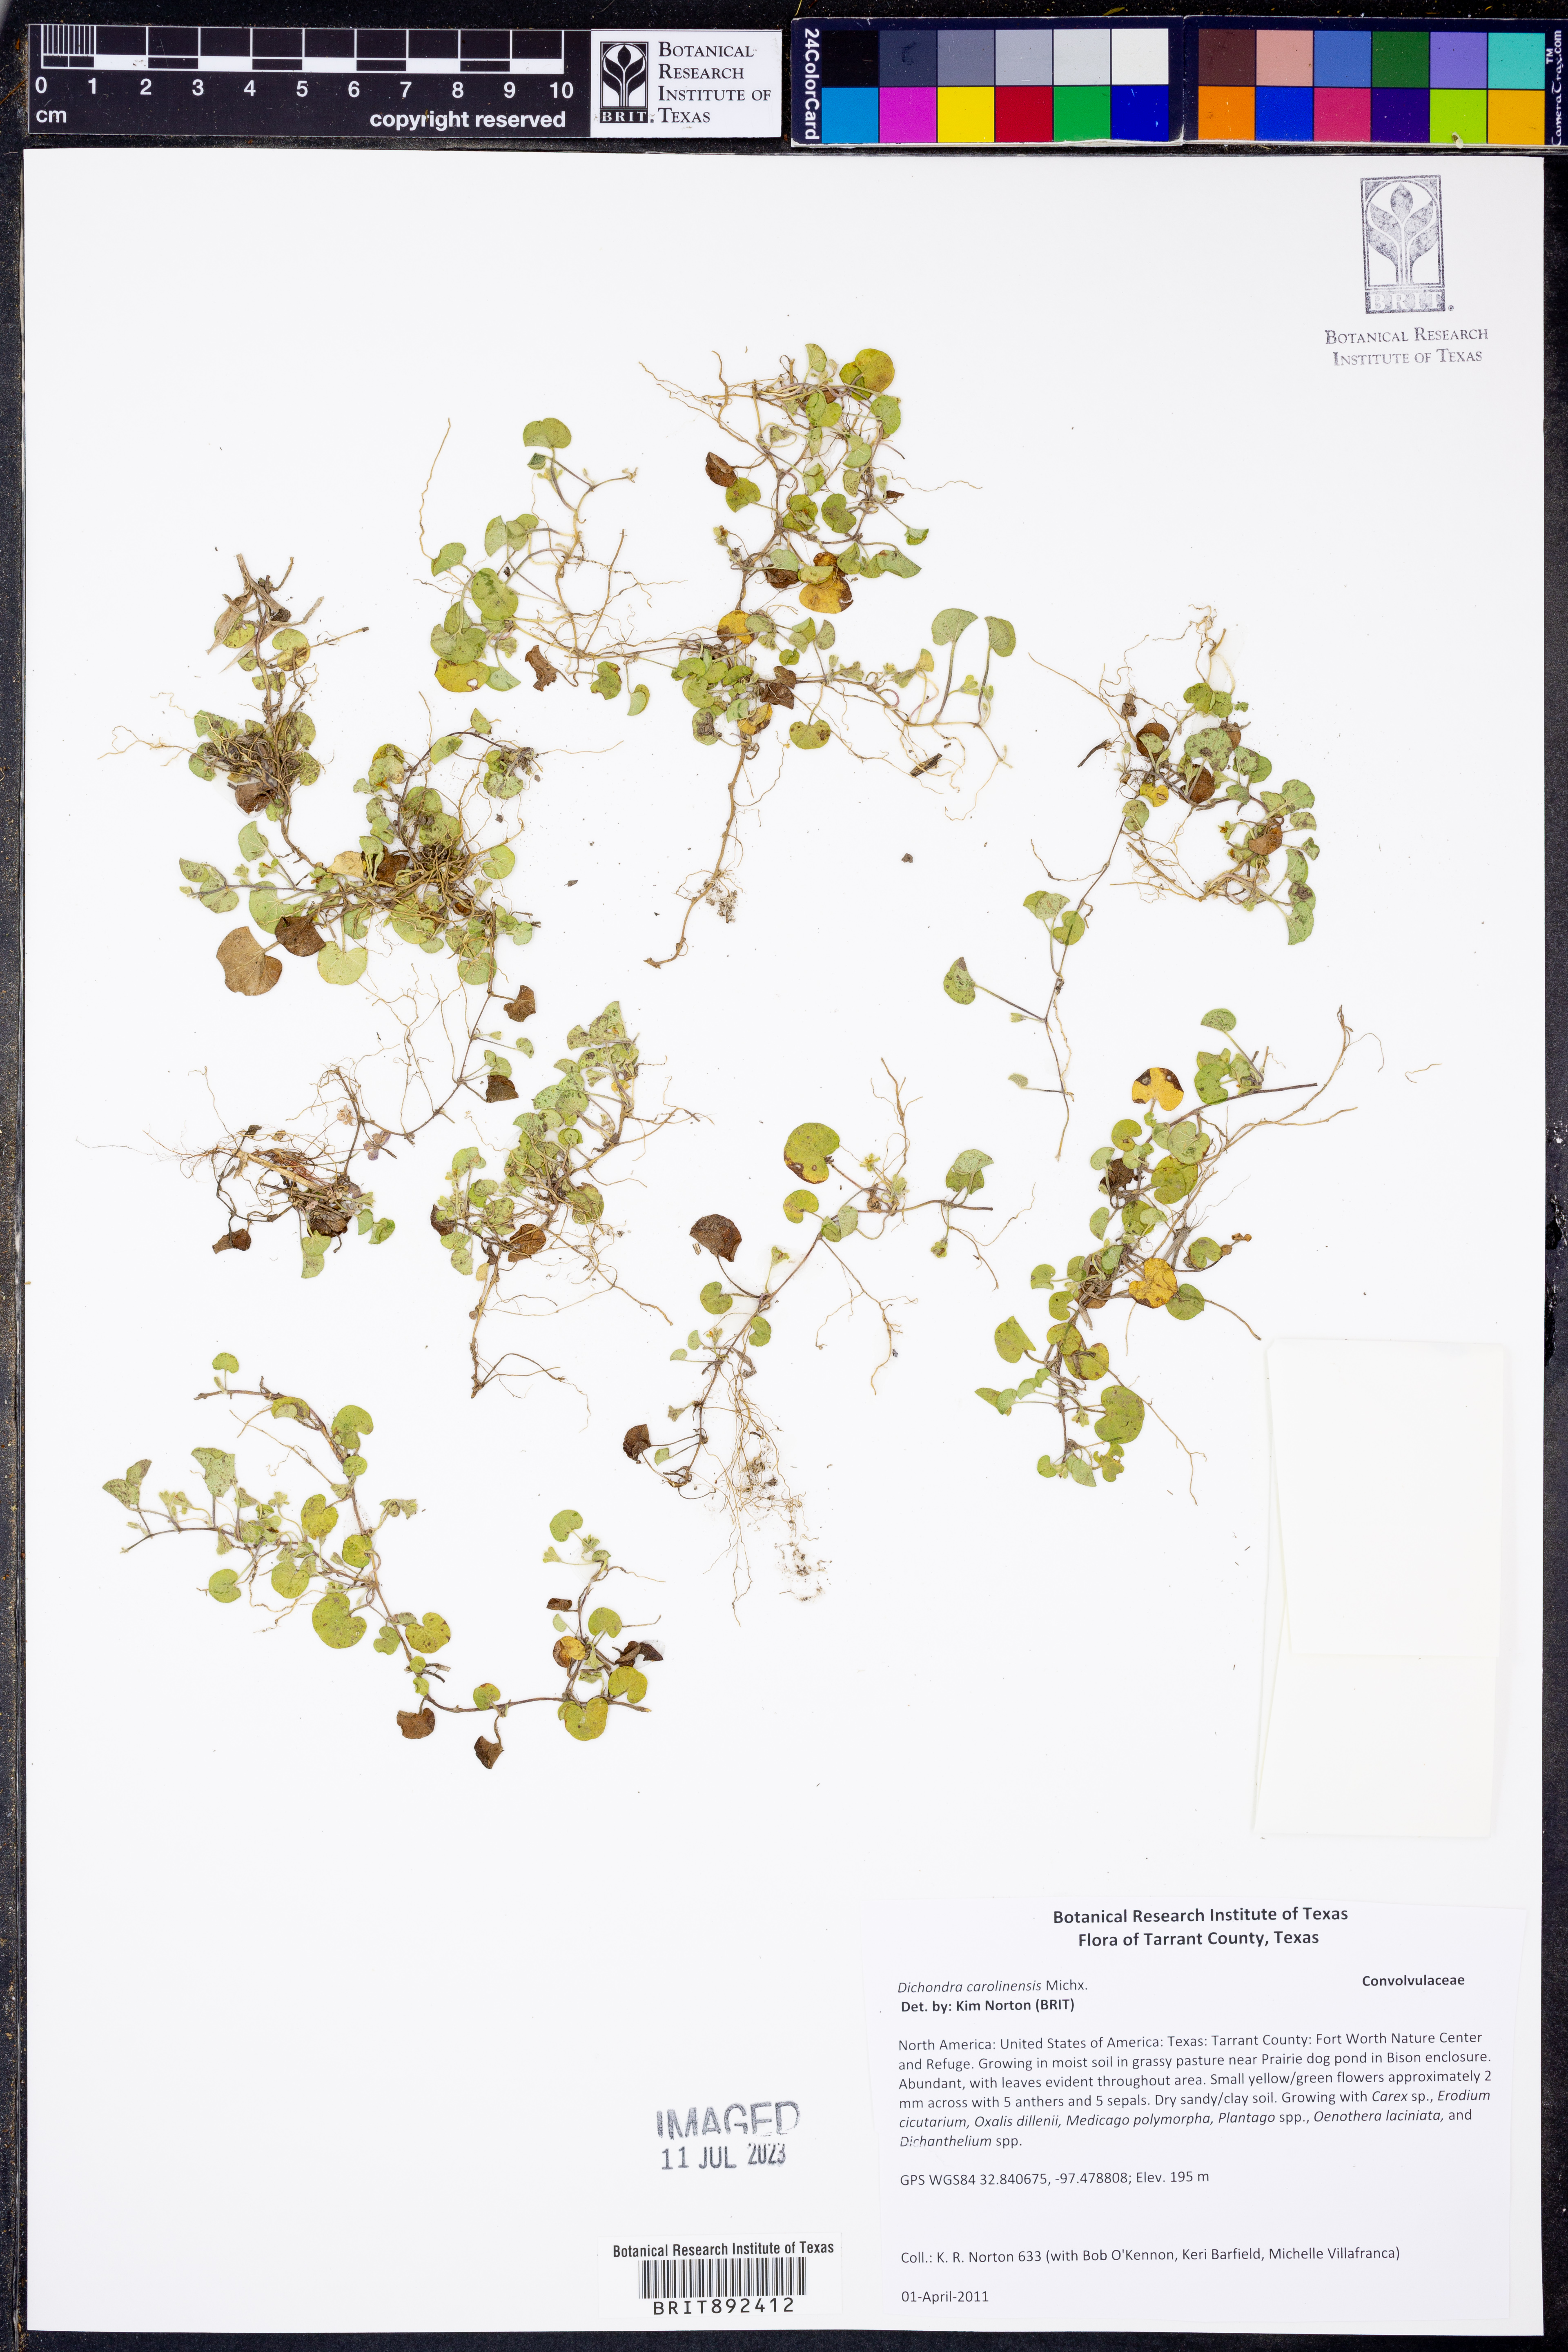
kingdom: Plantae
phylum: Tracheophyta
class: Magnoliopsida
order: Solanales
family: Convolvulaceae
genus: Dichondra
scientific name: Dichondra carolinensis
